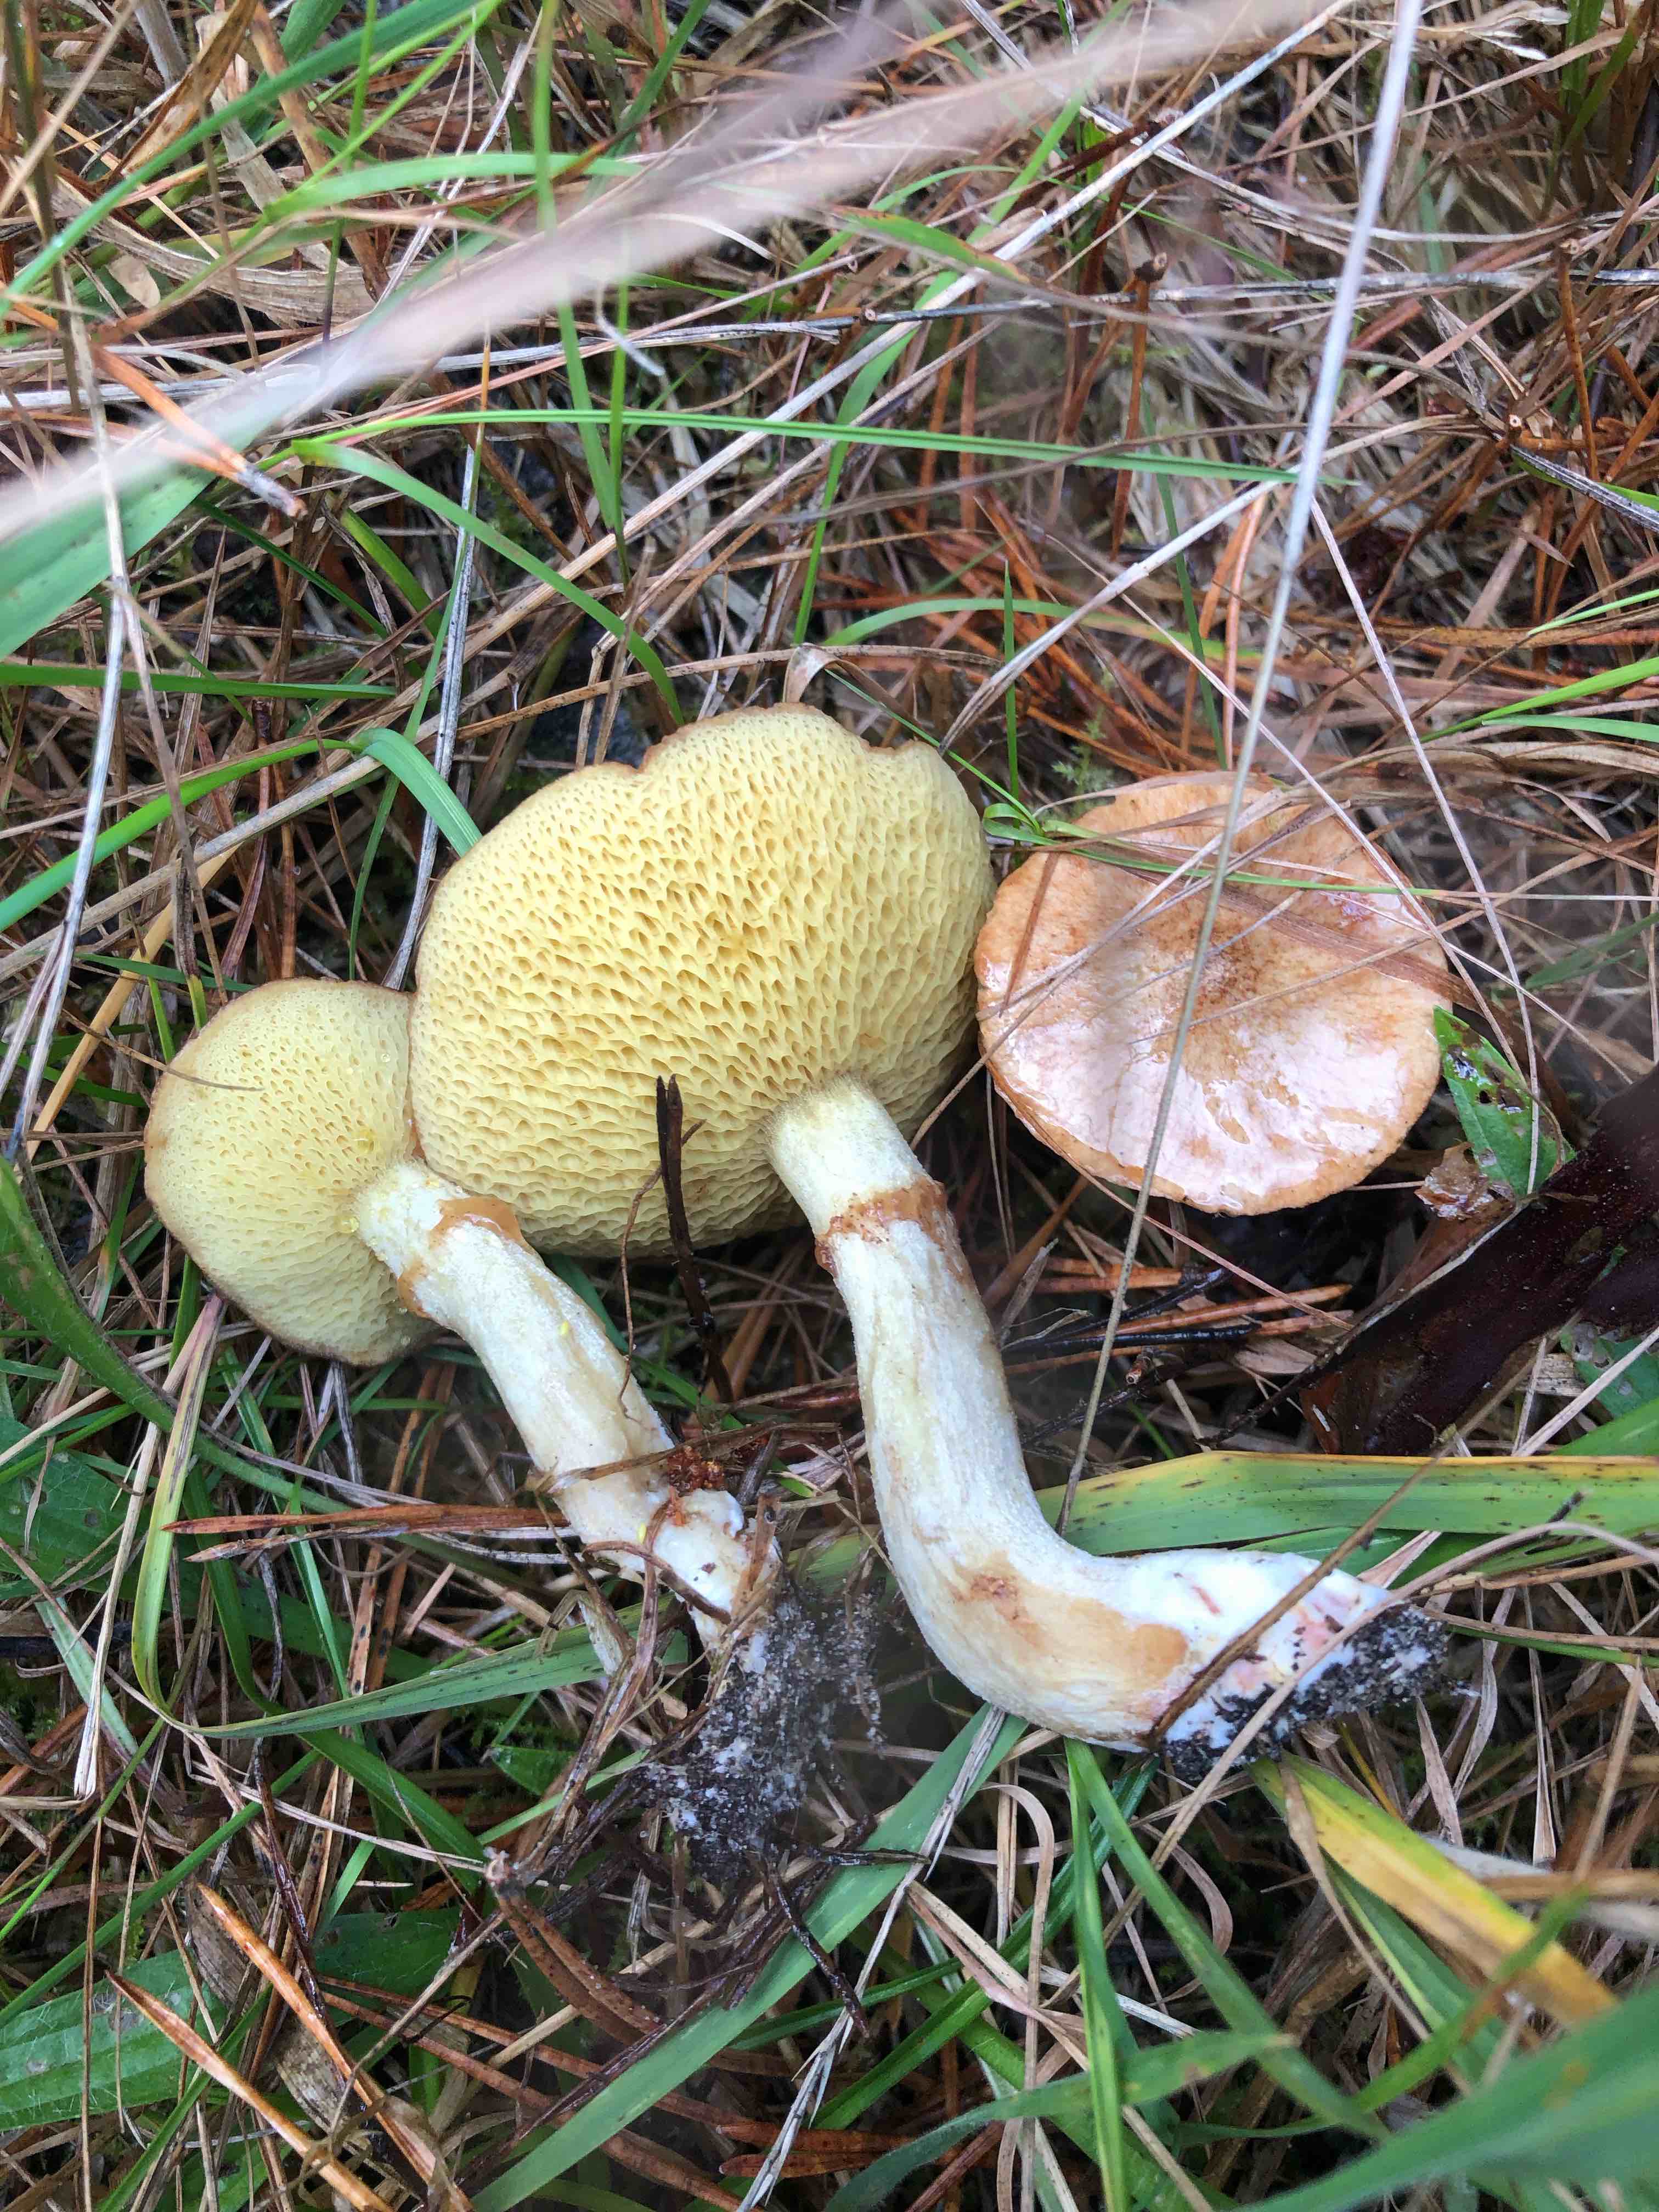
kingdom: Fungi
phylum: Basidiomycota
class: Agaricomycetes
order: Boletales
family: Suillaceae
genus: Suillus
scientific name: Suillus flavidus
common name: mose-slimrørhat
